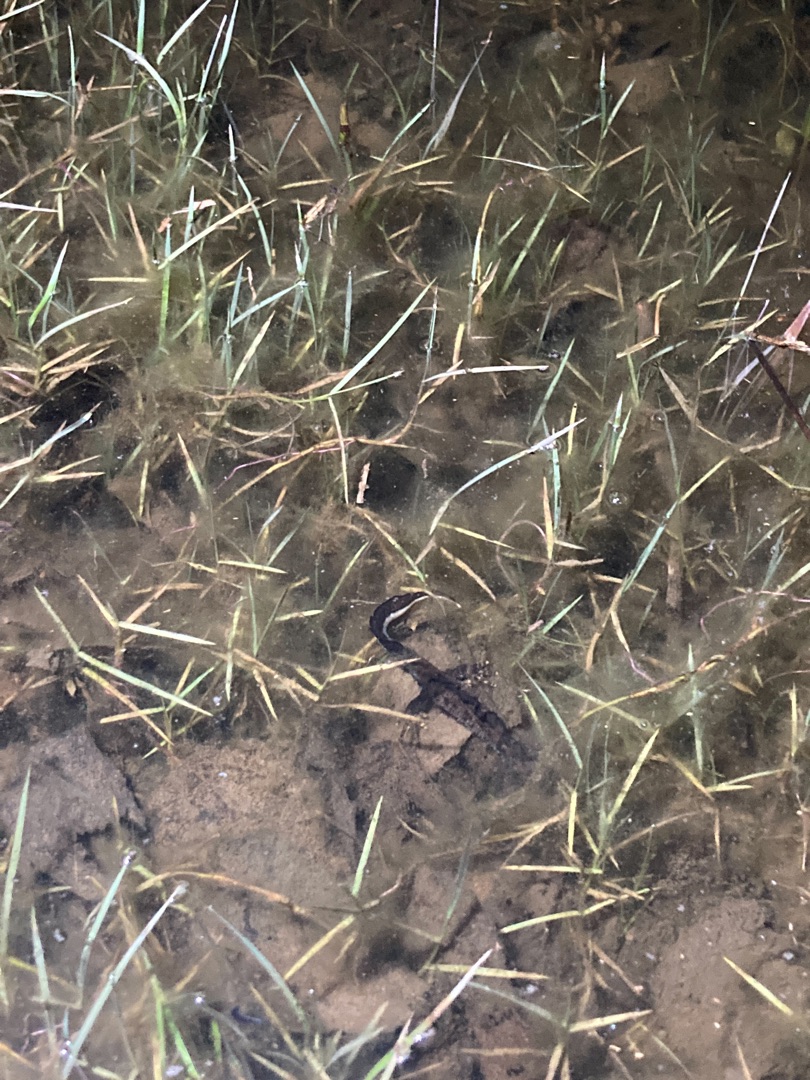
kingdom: Animalia
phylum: Chordata
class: Amphibia
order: Caudata
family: Salamandridae
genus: Triturus
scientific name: Triturus cristatus
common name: Stor vandsalamander
